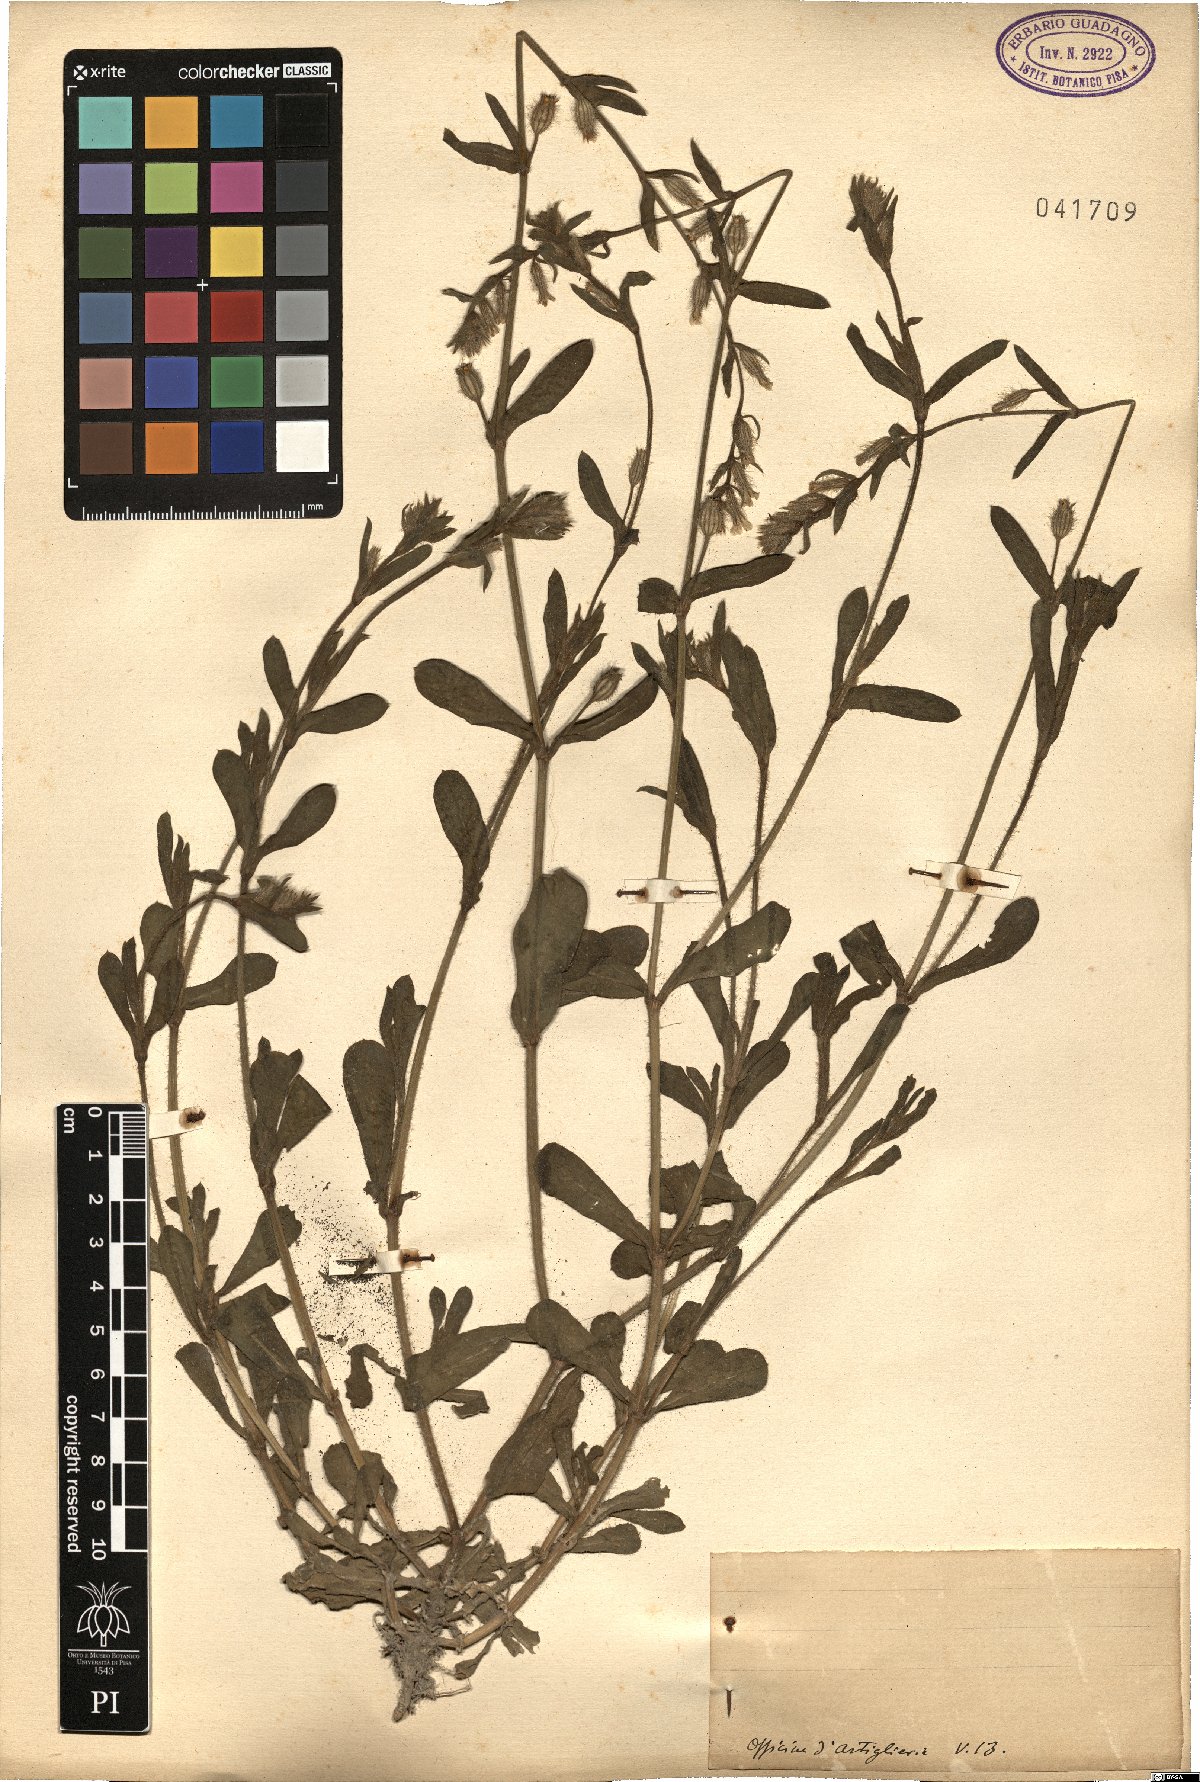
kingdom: Plantae
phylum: Tracheophyta
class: Magnoliopsida
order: Caryophyllales
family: Caryophyllaceae
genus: Silene
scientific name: Silene
